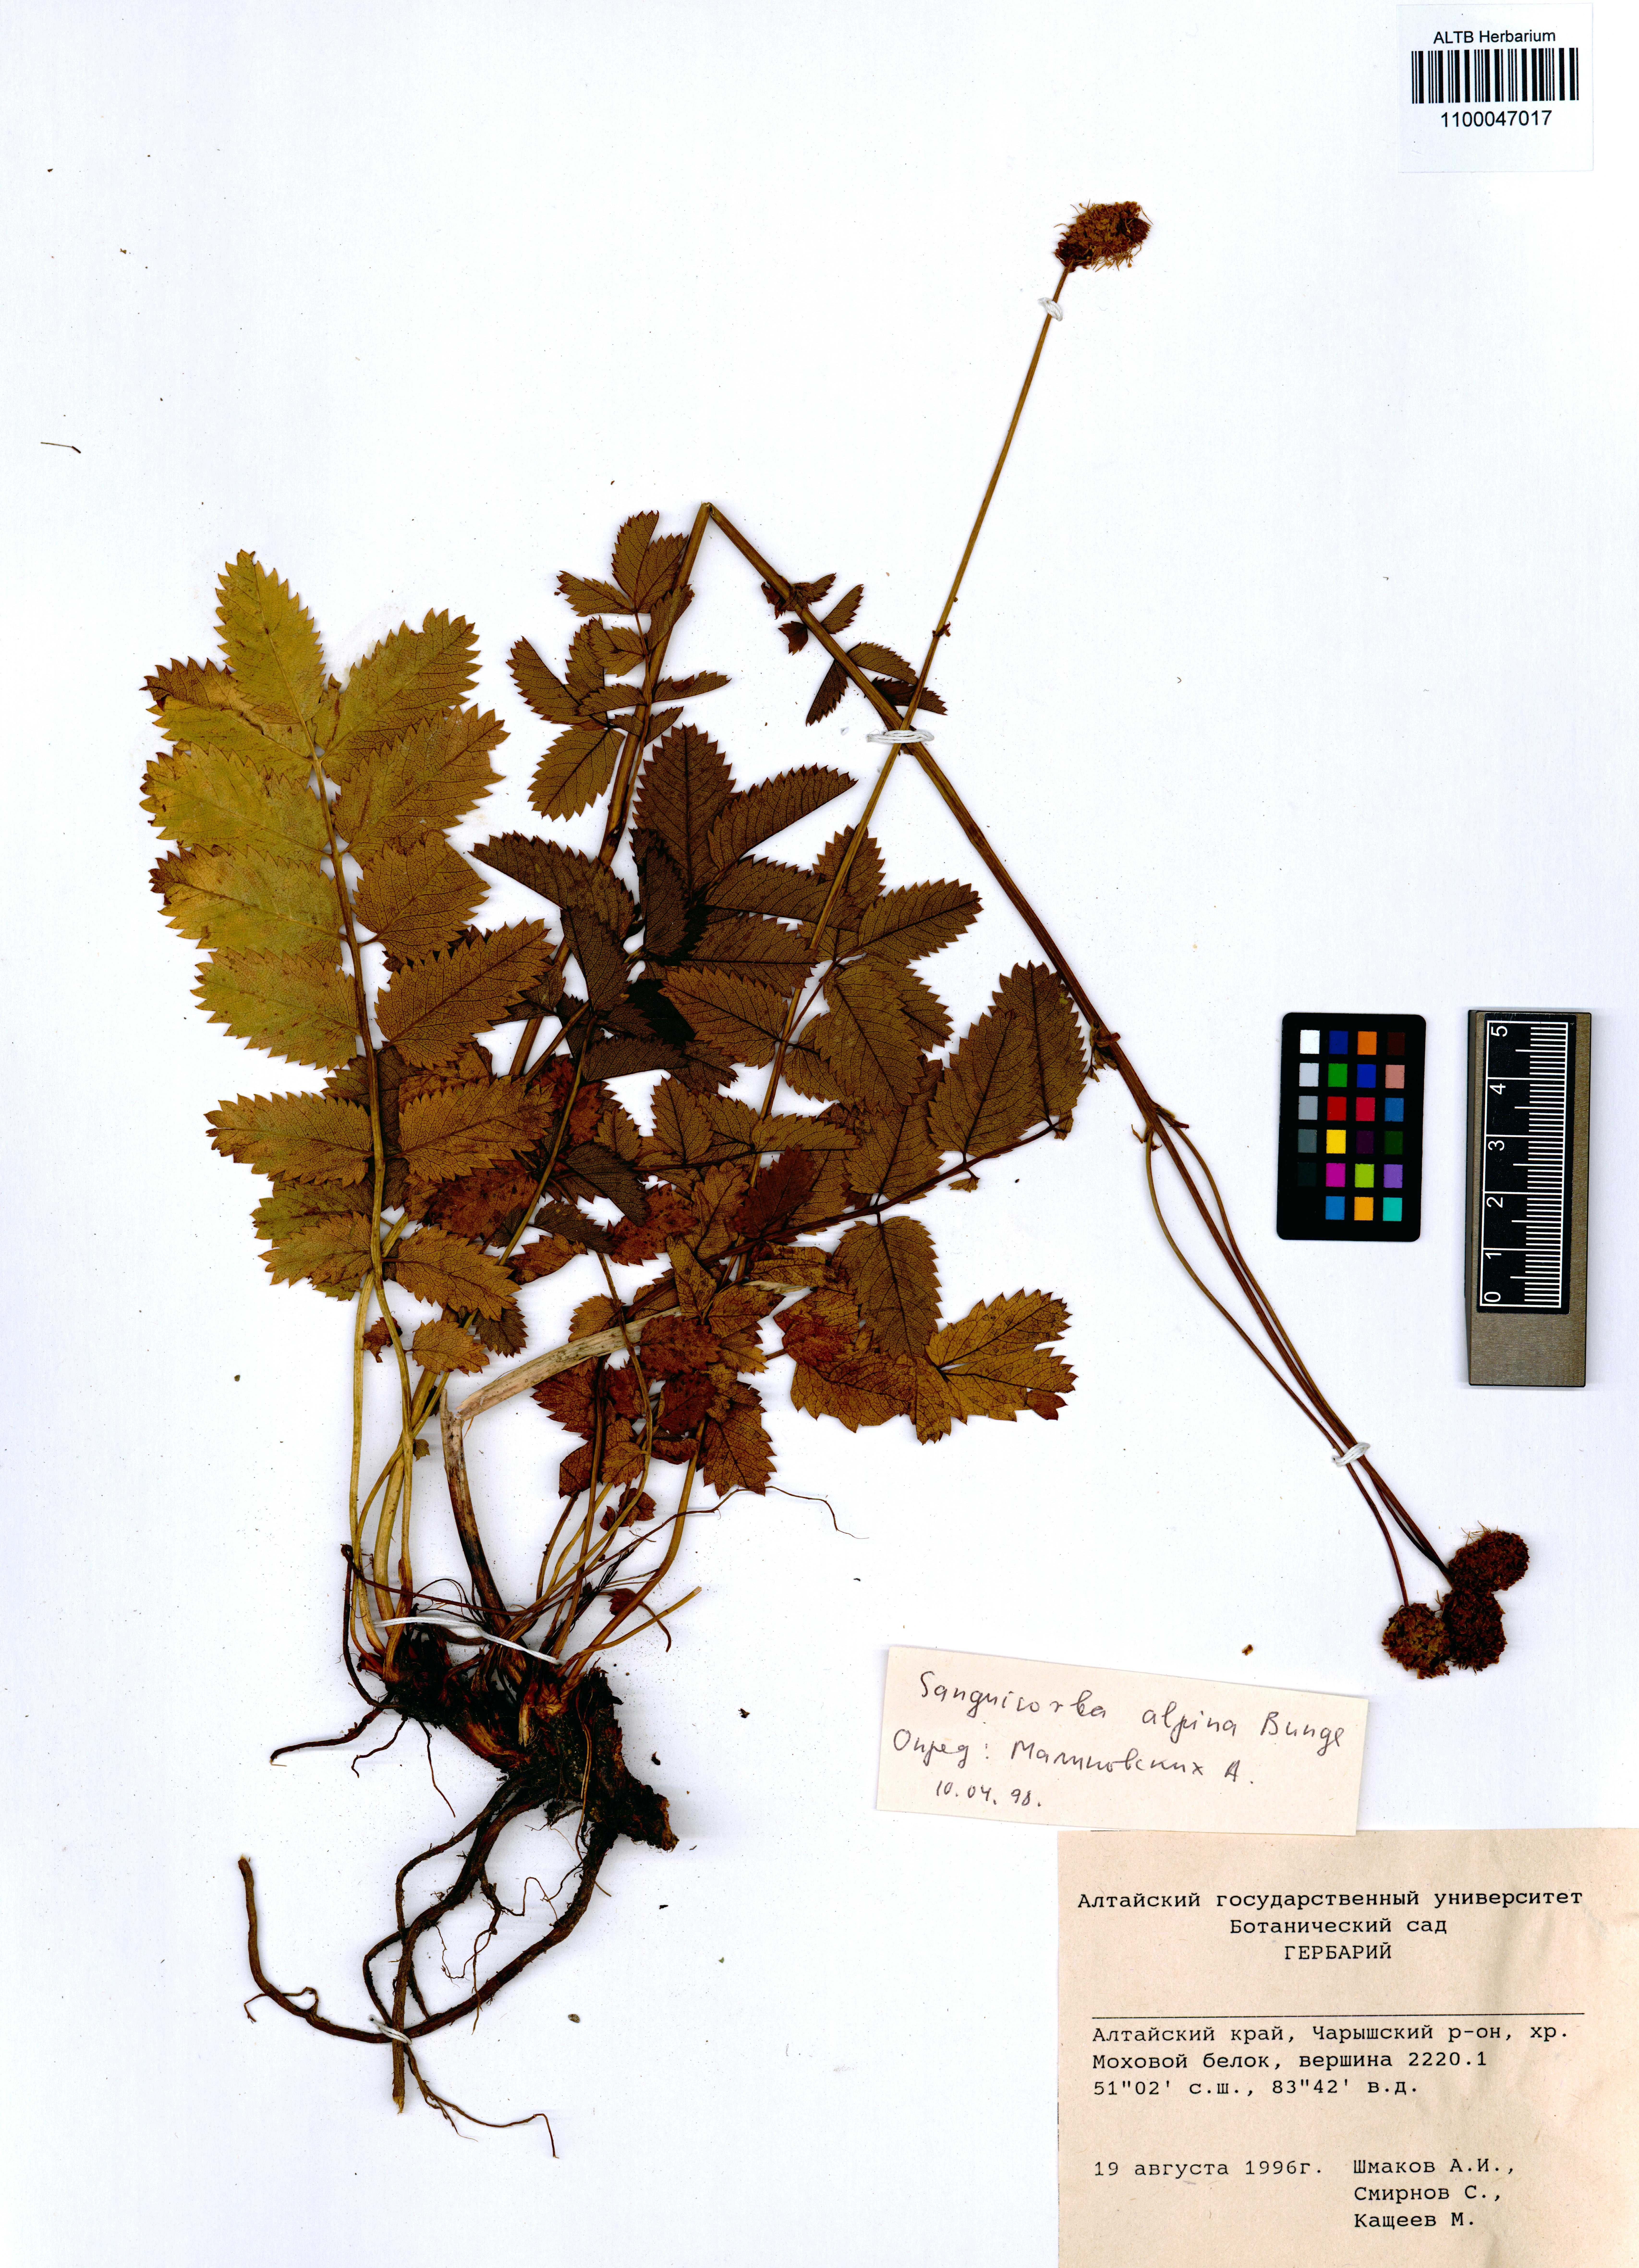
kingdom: Plantae
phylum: Tracheophyta
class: Magnoliopsida
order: Rosales
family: Rosaceae
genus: Sanguisorba
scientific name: Sanguisorba alpina
